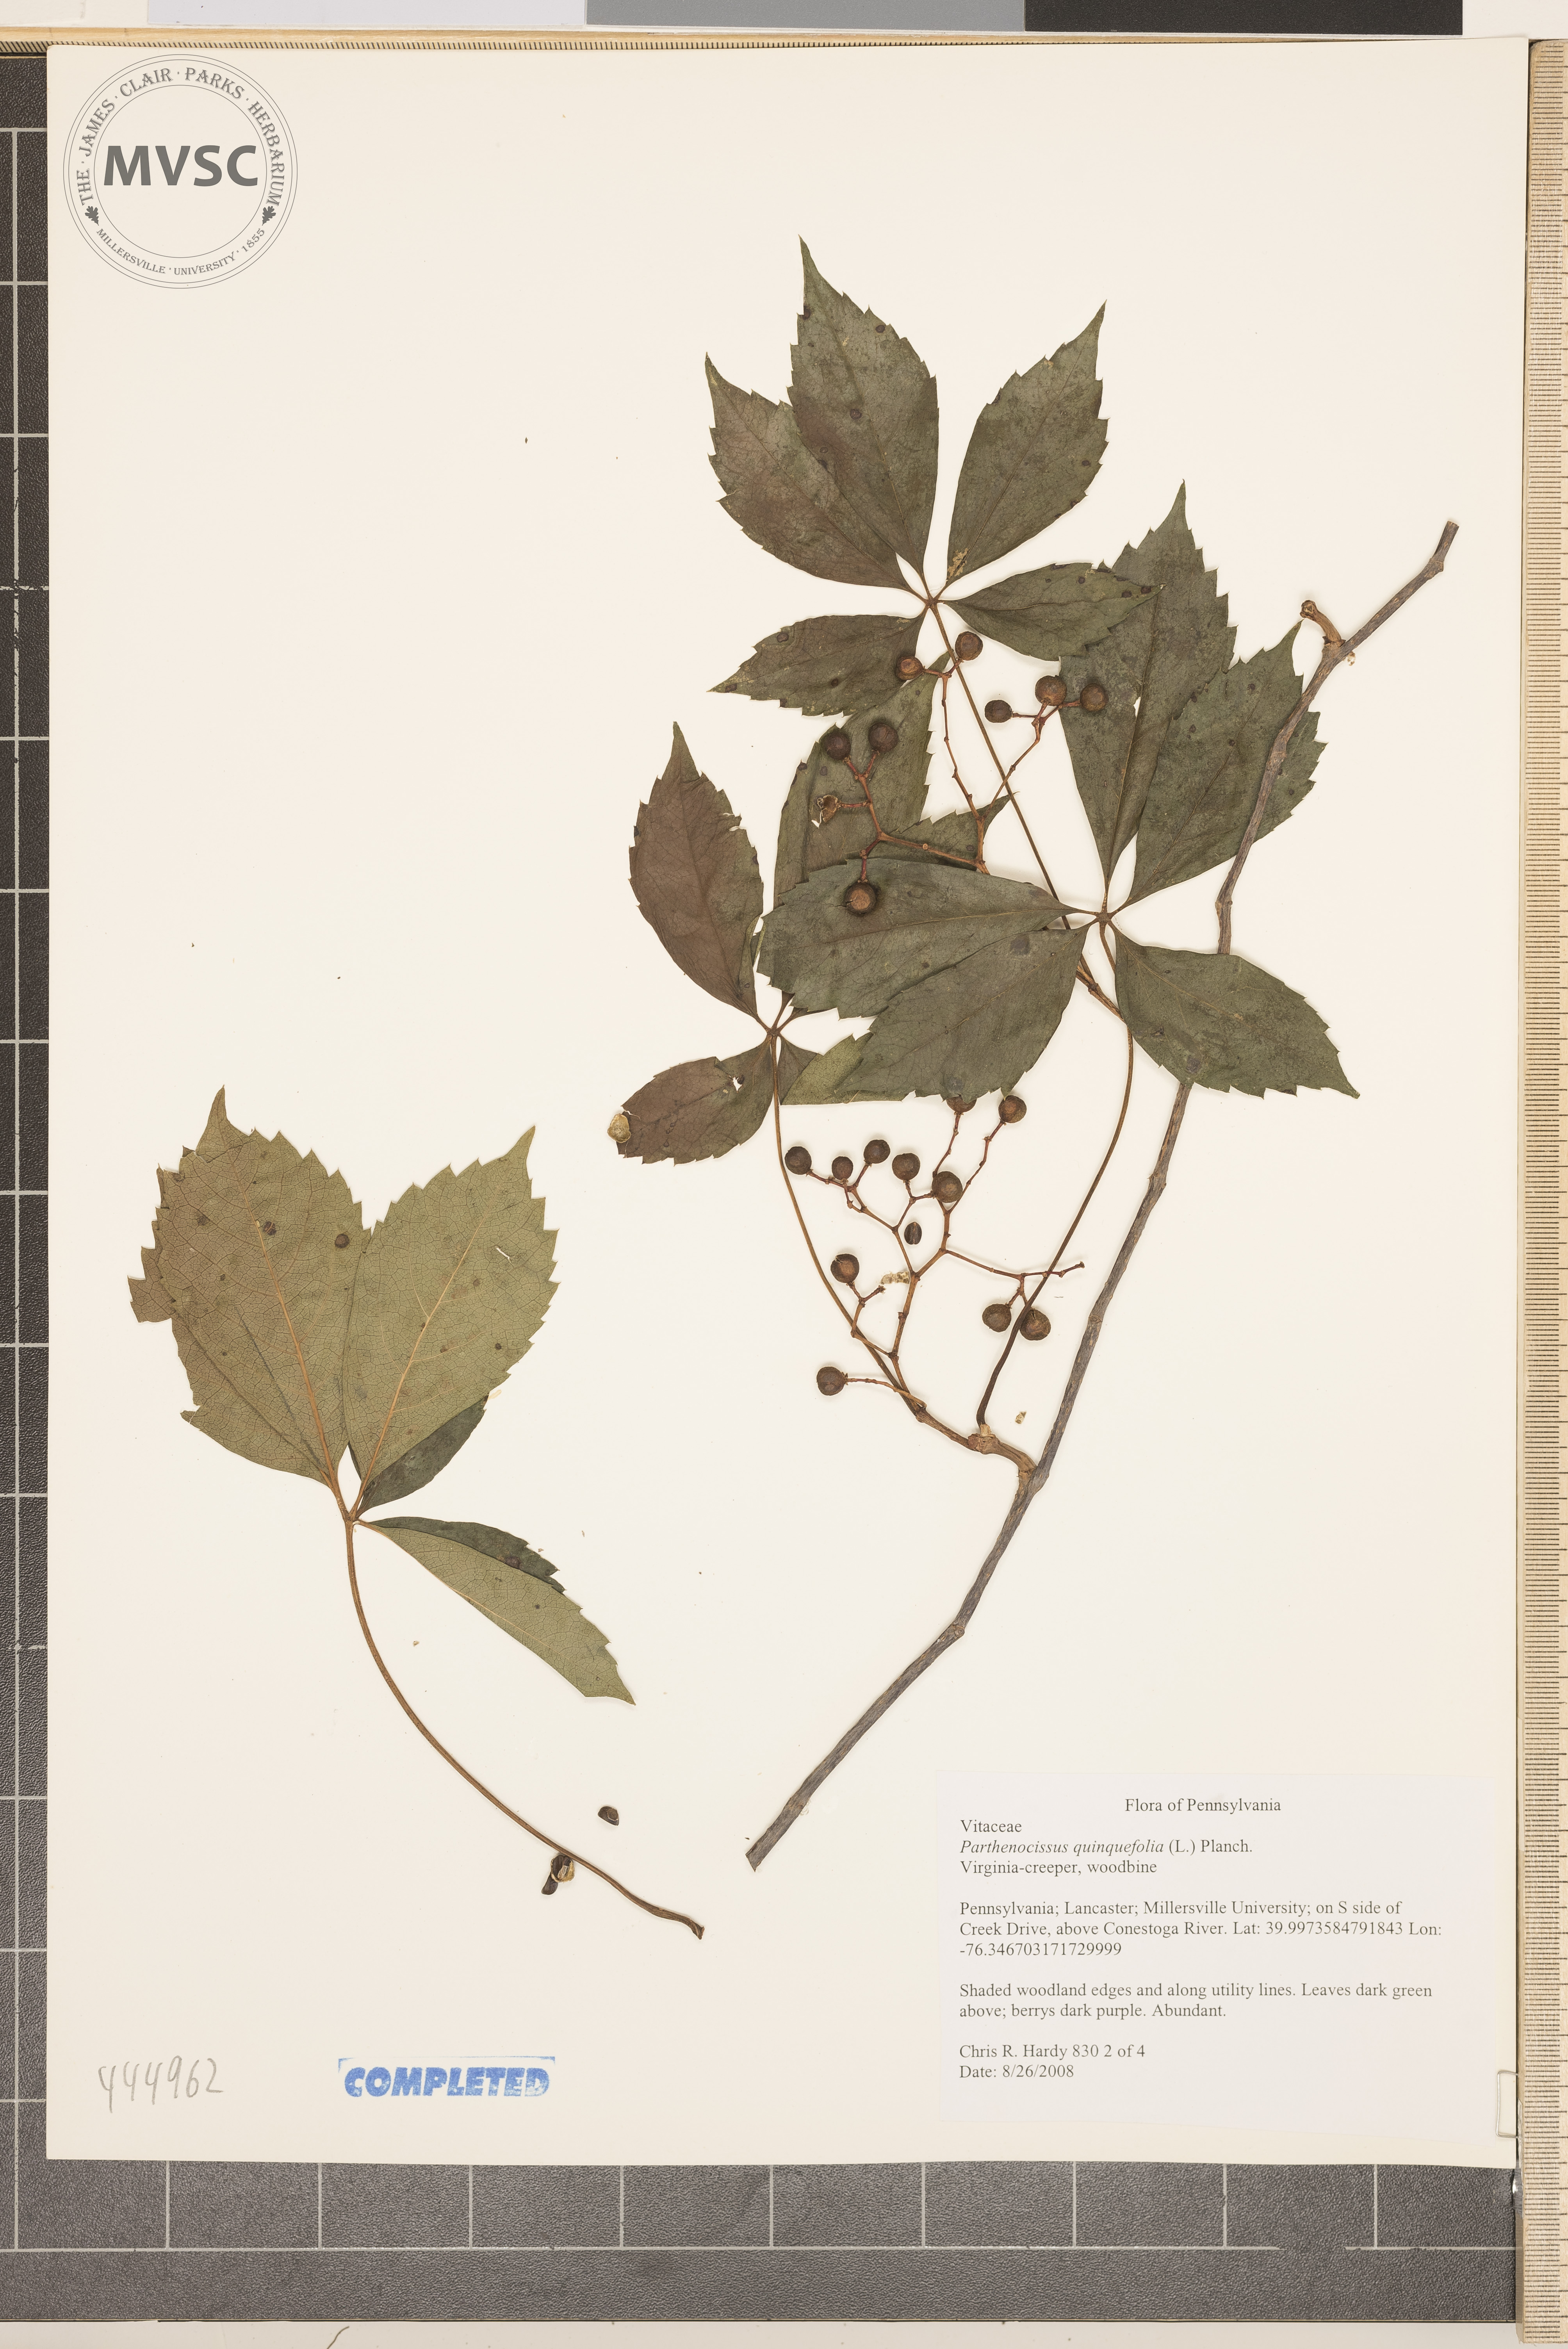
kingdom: Plantae
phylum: Tracheophyta
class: Magnoliopsida
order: Vitales
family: Vitaceae
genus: Parthenocissus
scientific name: Parthenocissus quinquefolia
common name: Virginia creeper
